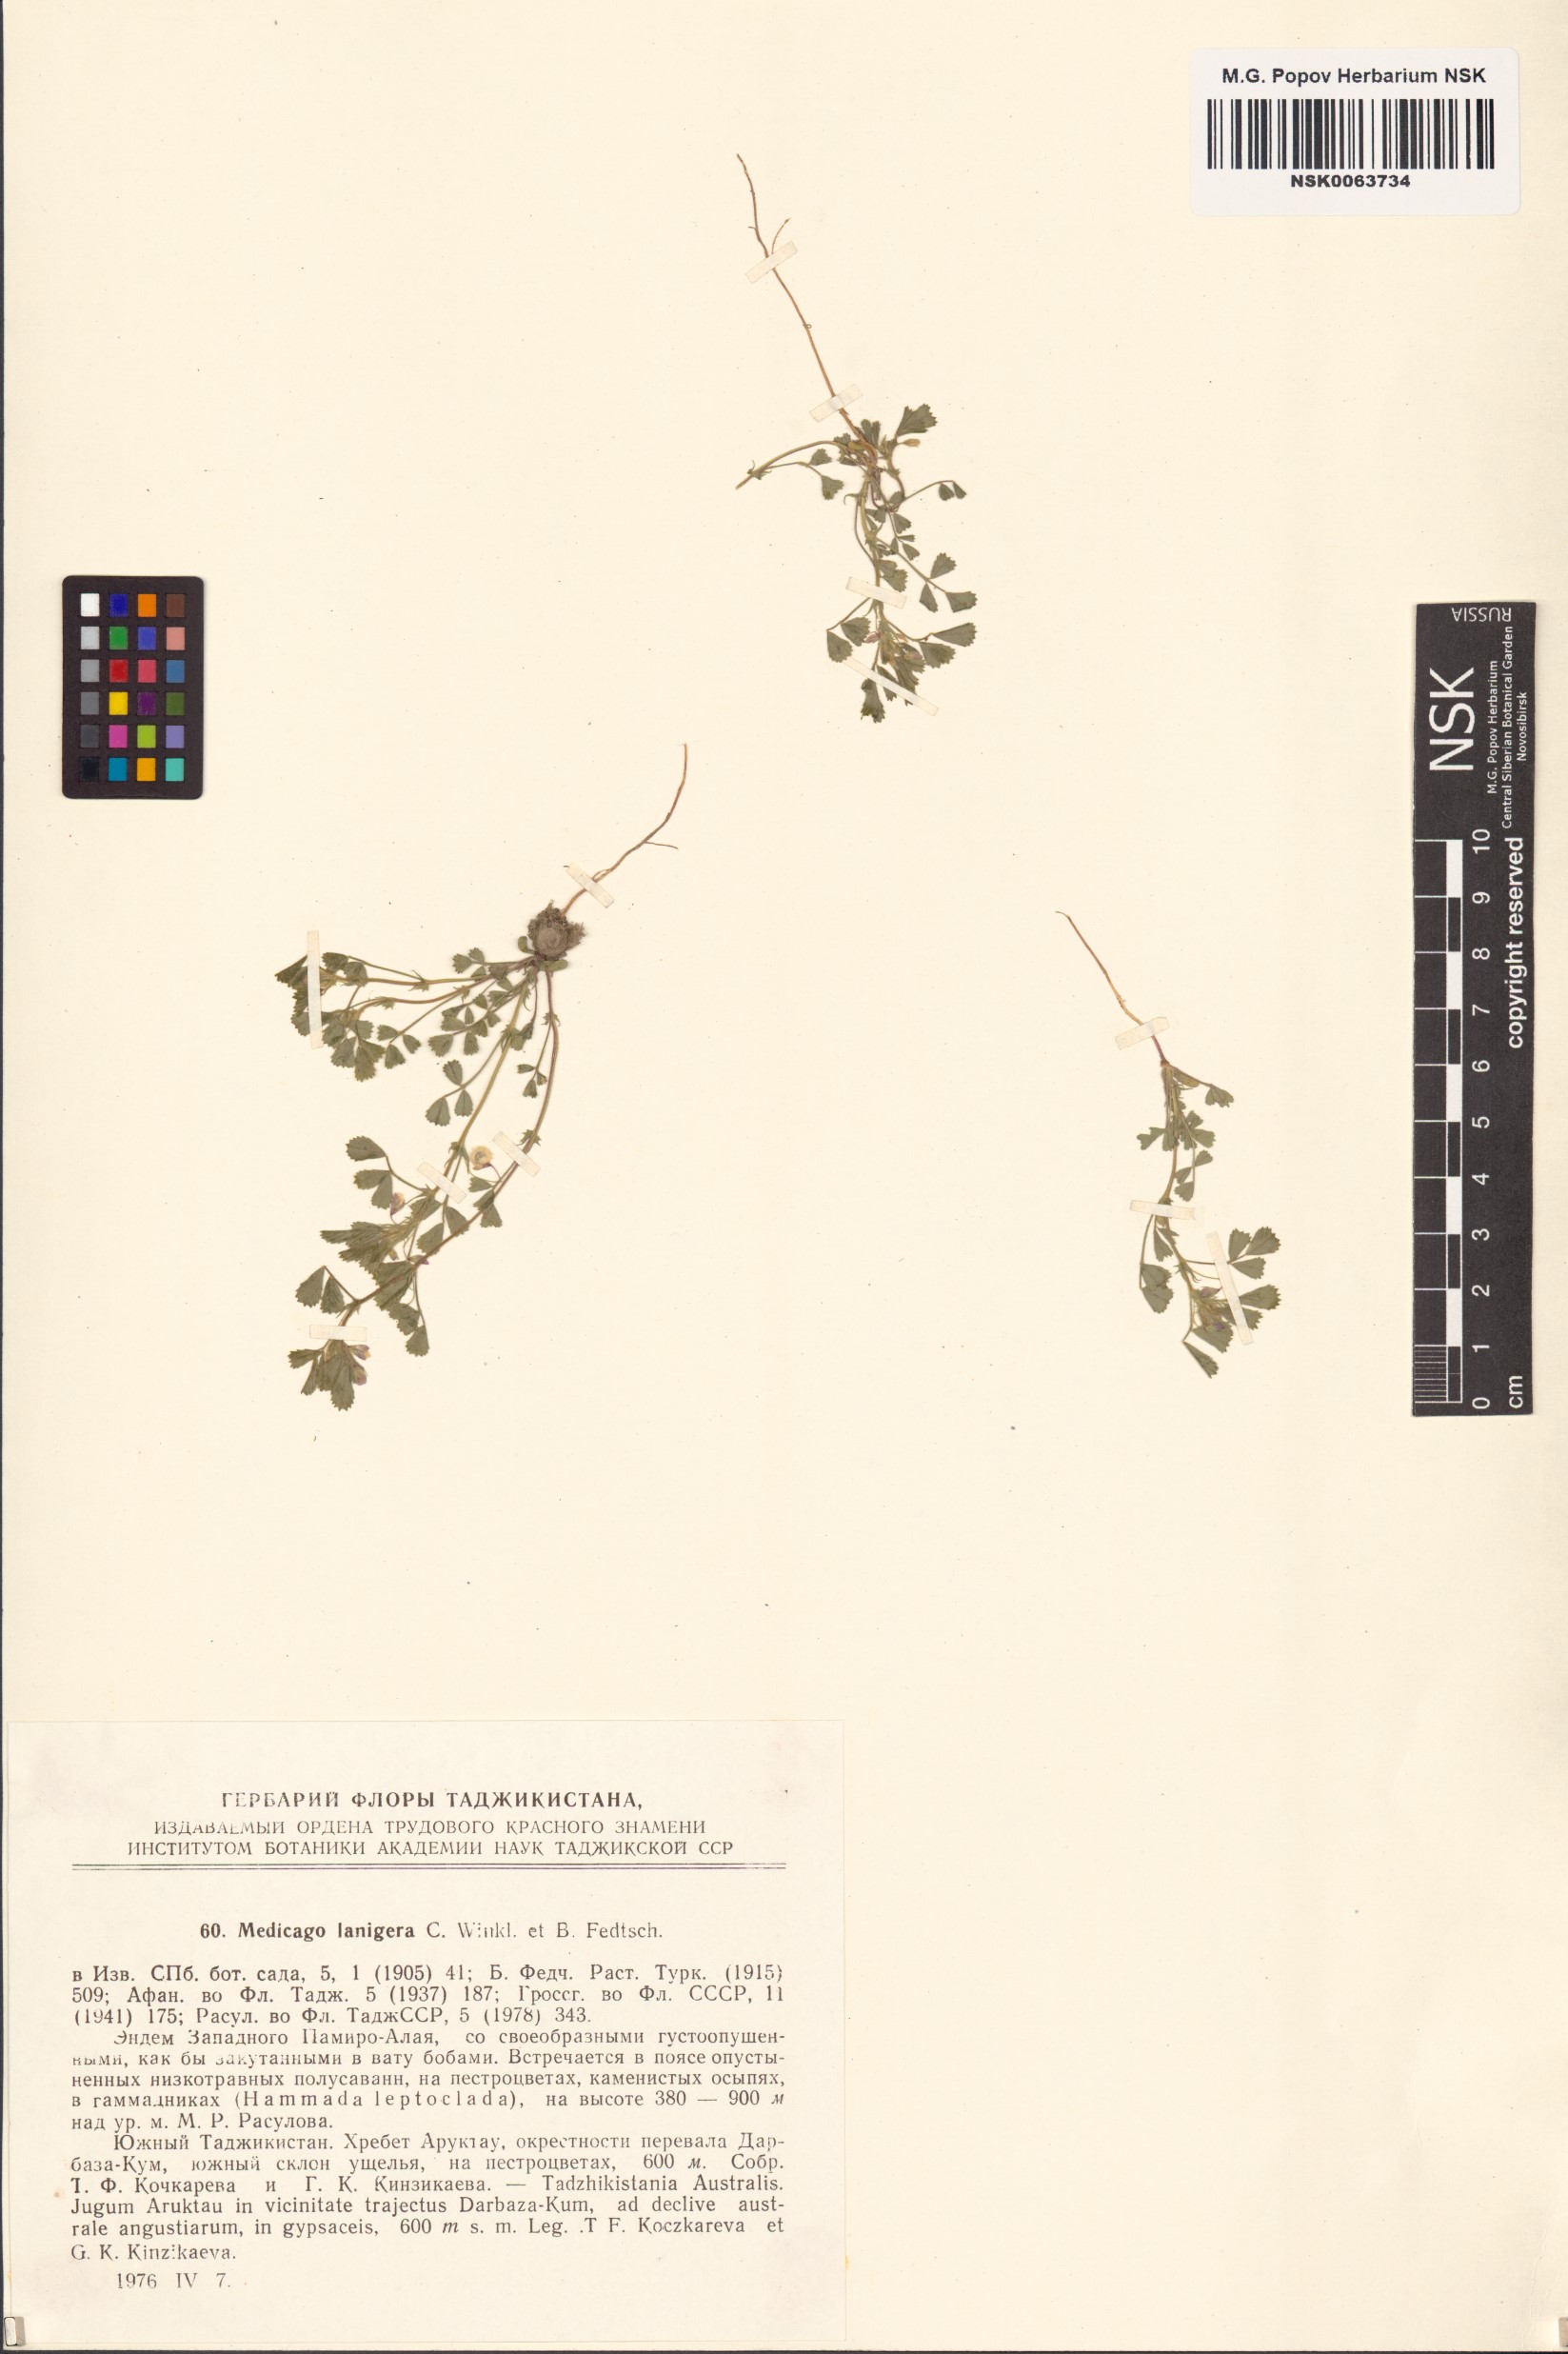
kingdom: Plantae
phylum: Tracheophyta
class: Magnoliopsida
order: Fabales
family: Fabaceae
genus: Medicago
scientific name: Medicago lanigera
